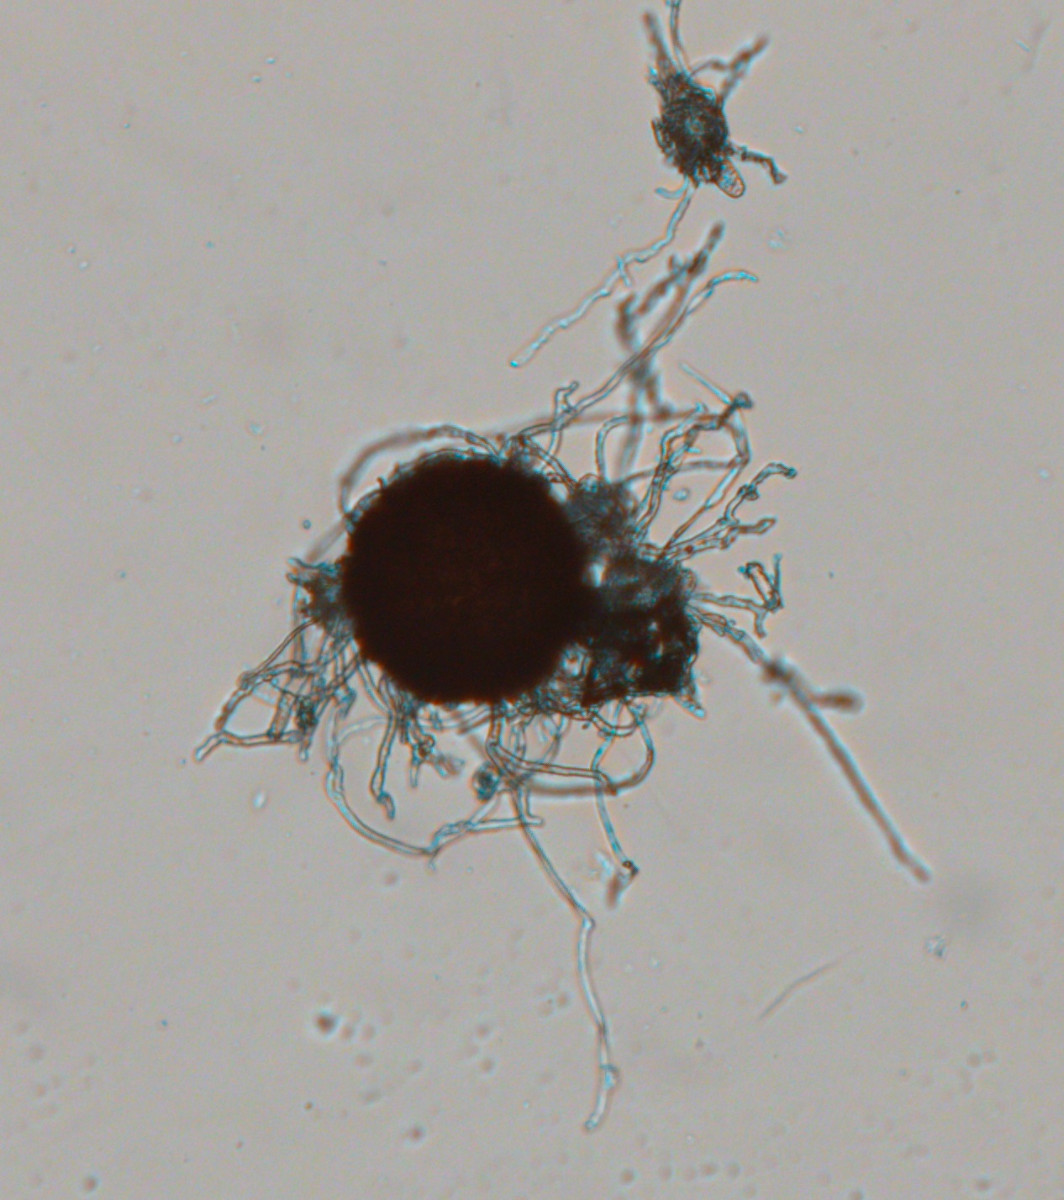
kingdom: Fungi
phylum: Ascomycota
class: Leotiomycetes
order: Helotiales
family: Erysiphaceae
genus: Erysiphe
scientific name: Erysiphe ulmariae
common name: mjødurt-meldug
